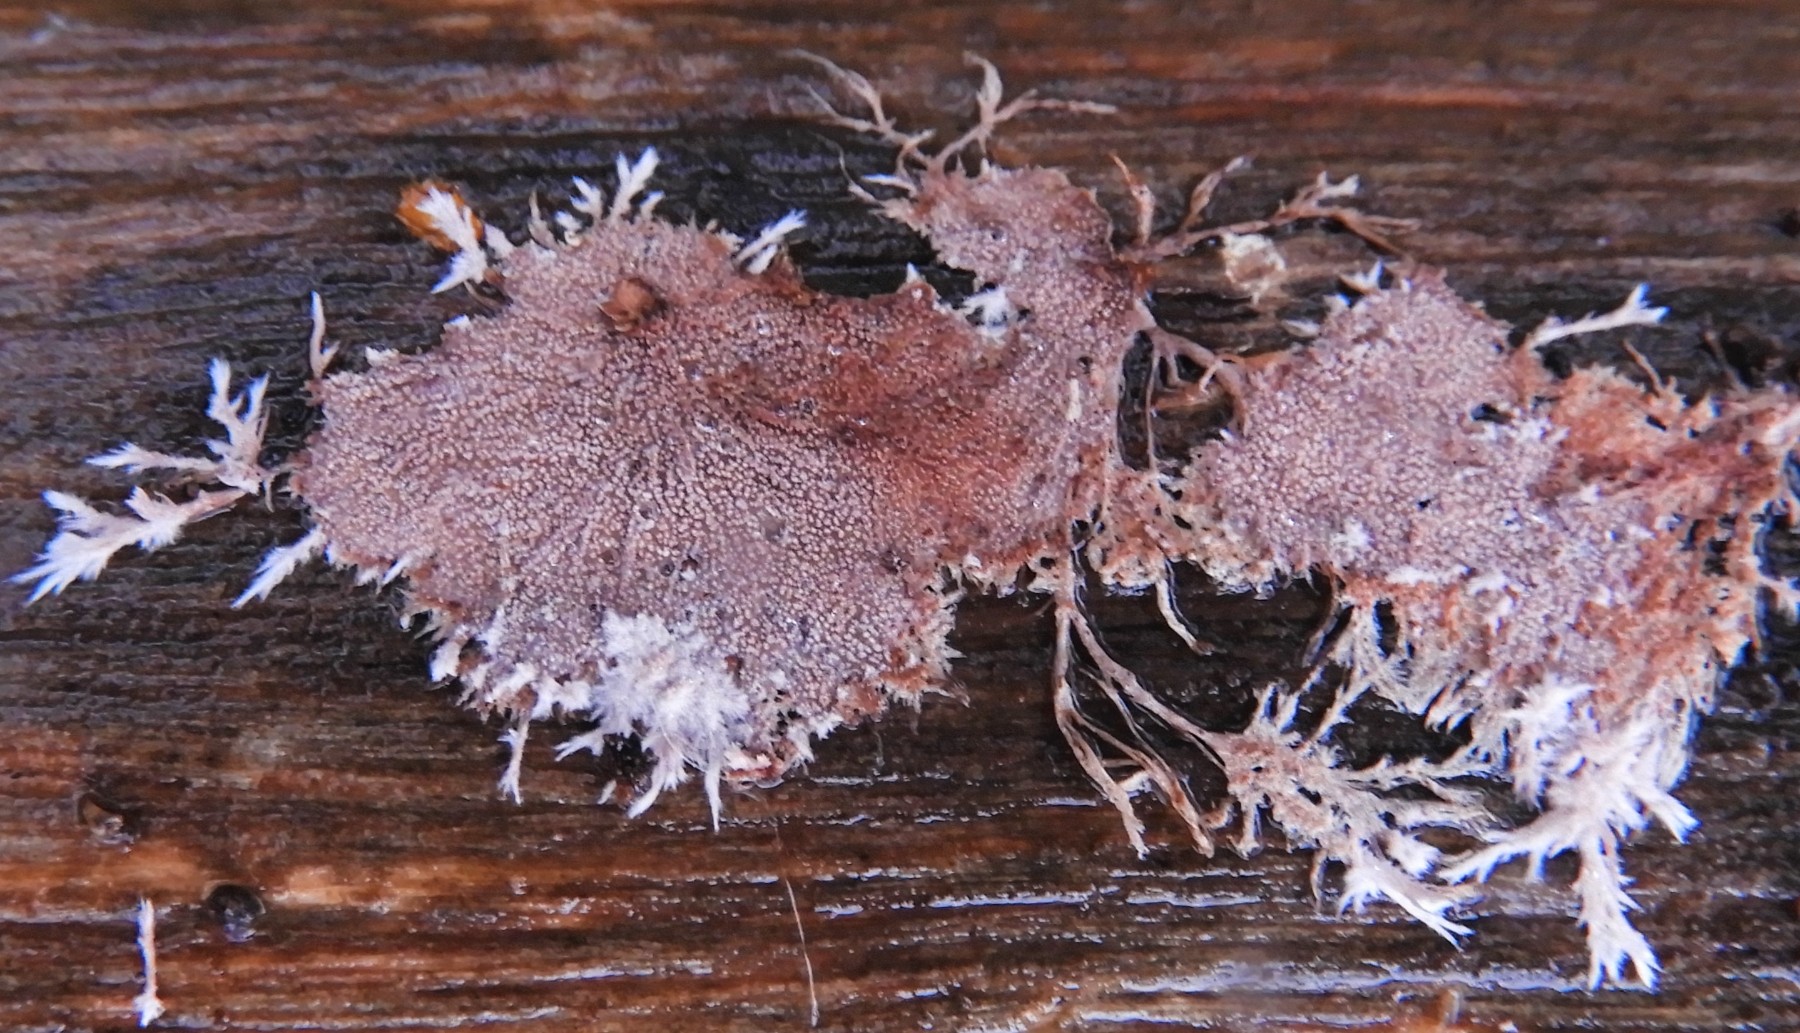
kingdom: Fungi
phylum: Basidiomycota
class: Agaricomycetes
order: Polyporales
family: Steccherinaceae
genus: Steccherinum
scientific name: Steccherinum fimbriatum
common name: trådet skønpig
